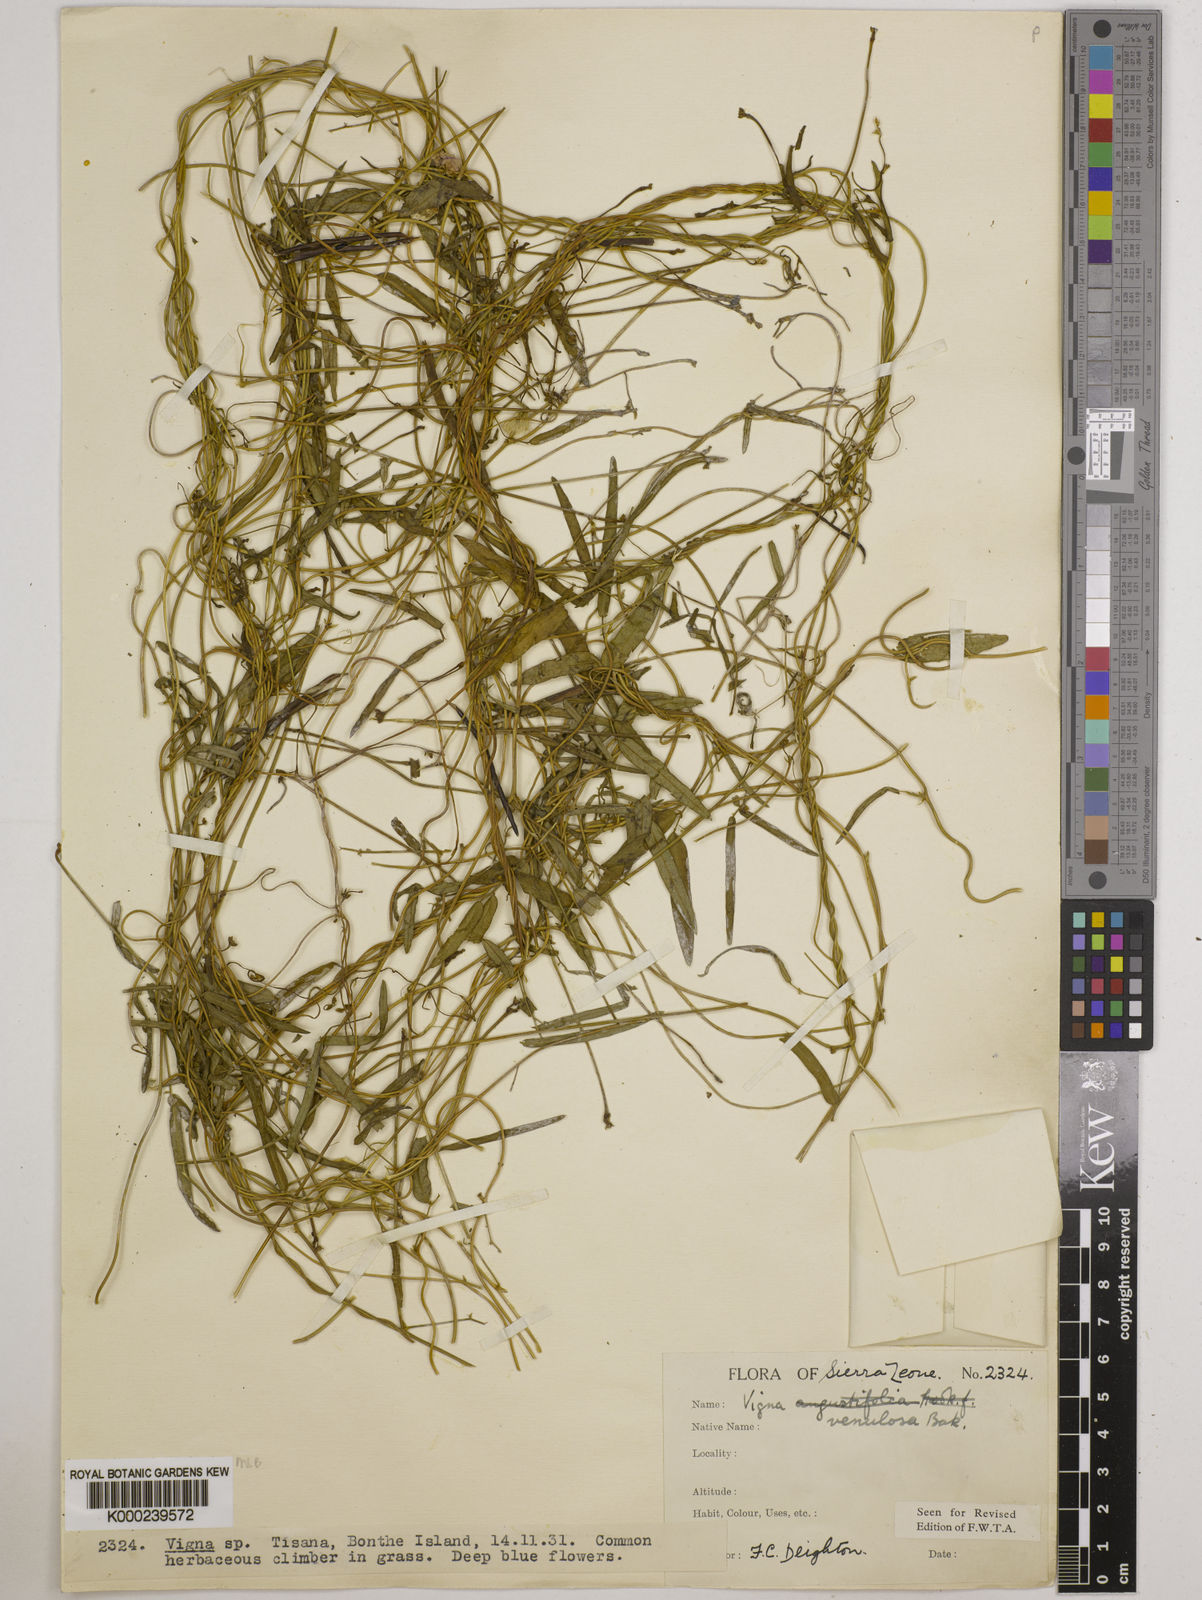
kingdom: Plantae
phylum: Tracheophyta
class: Magnoliopsida
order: Fabales
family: Fabaceae
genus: Vigna
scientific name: Vigna venulosa
